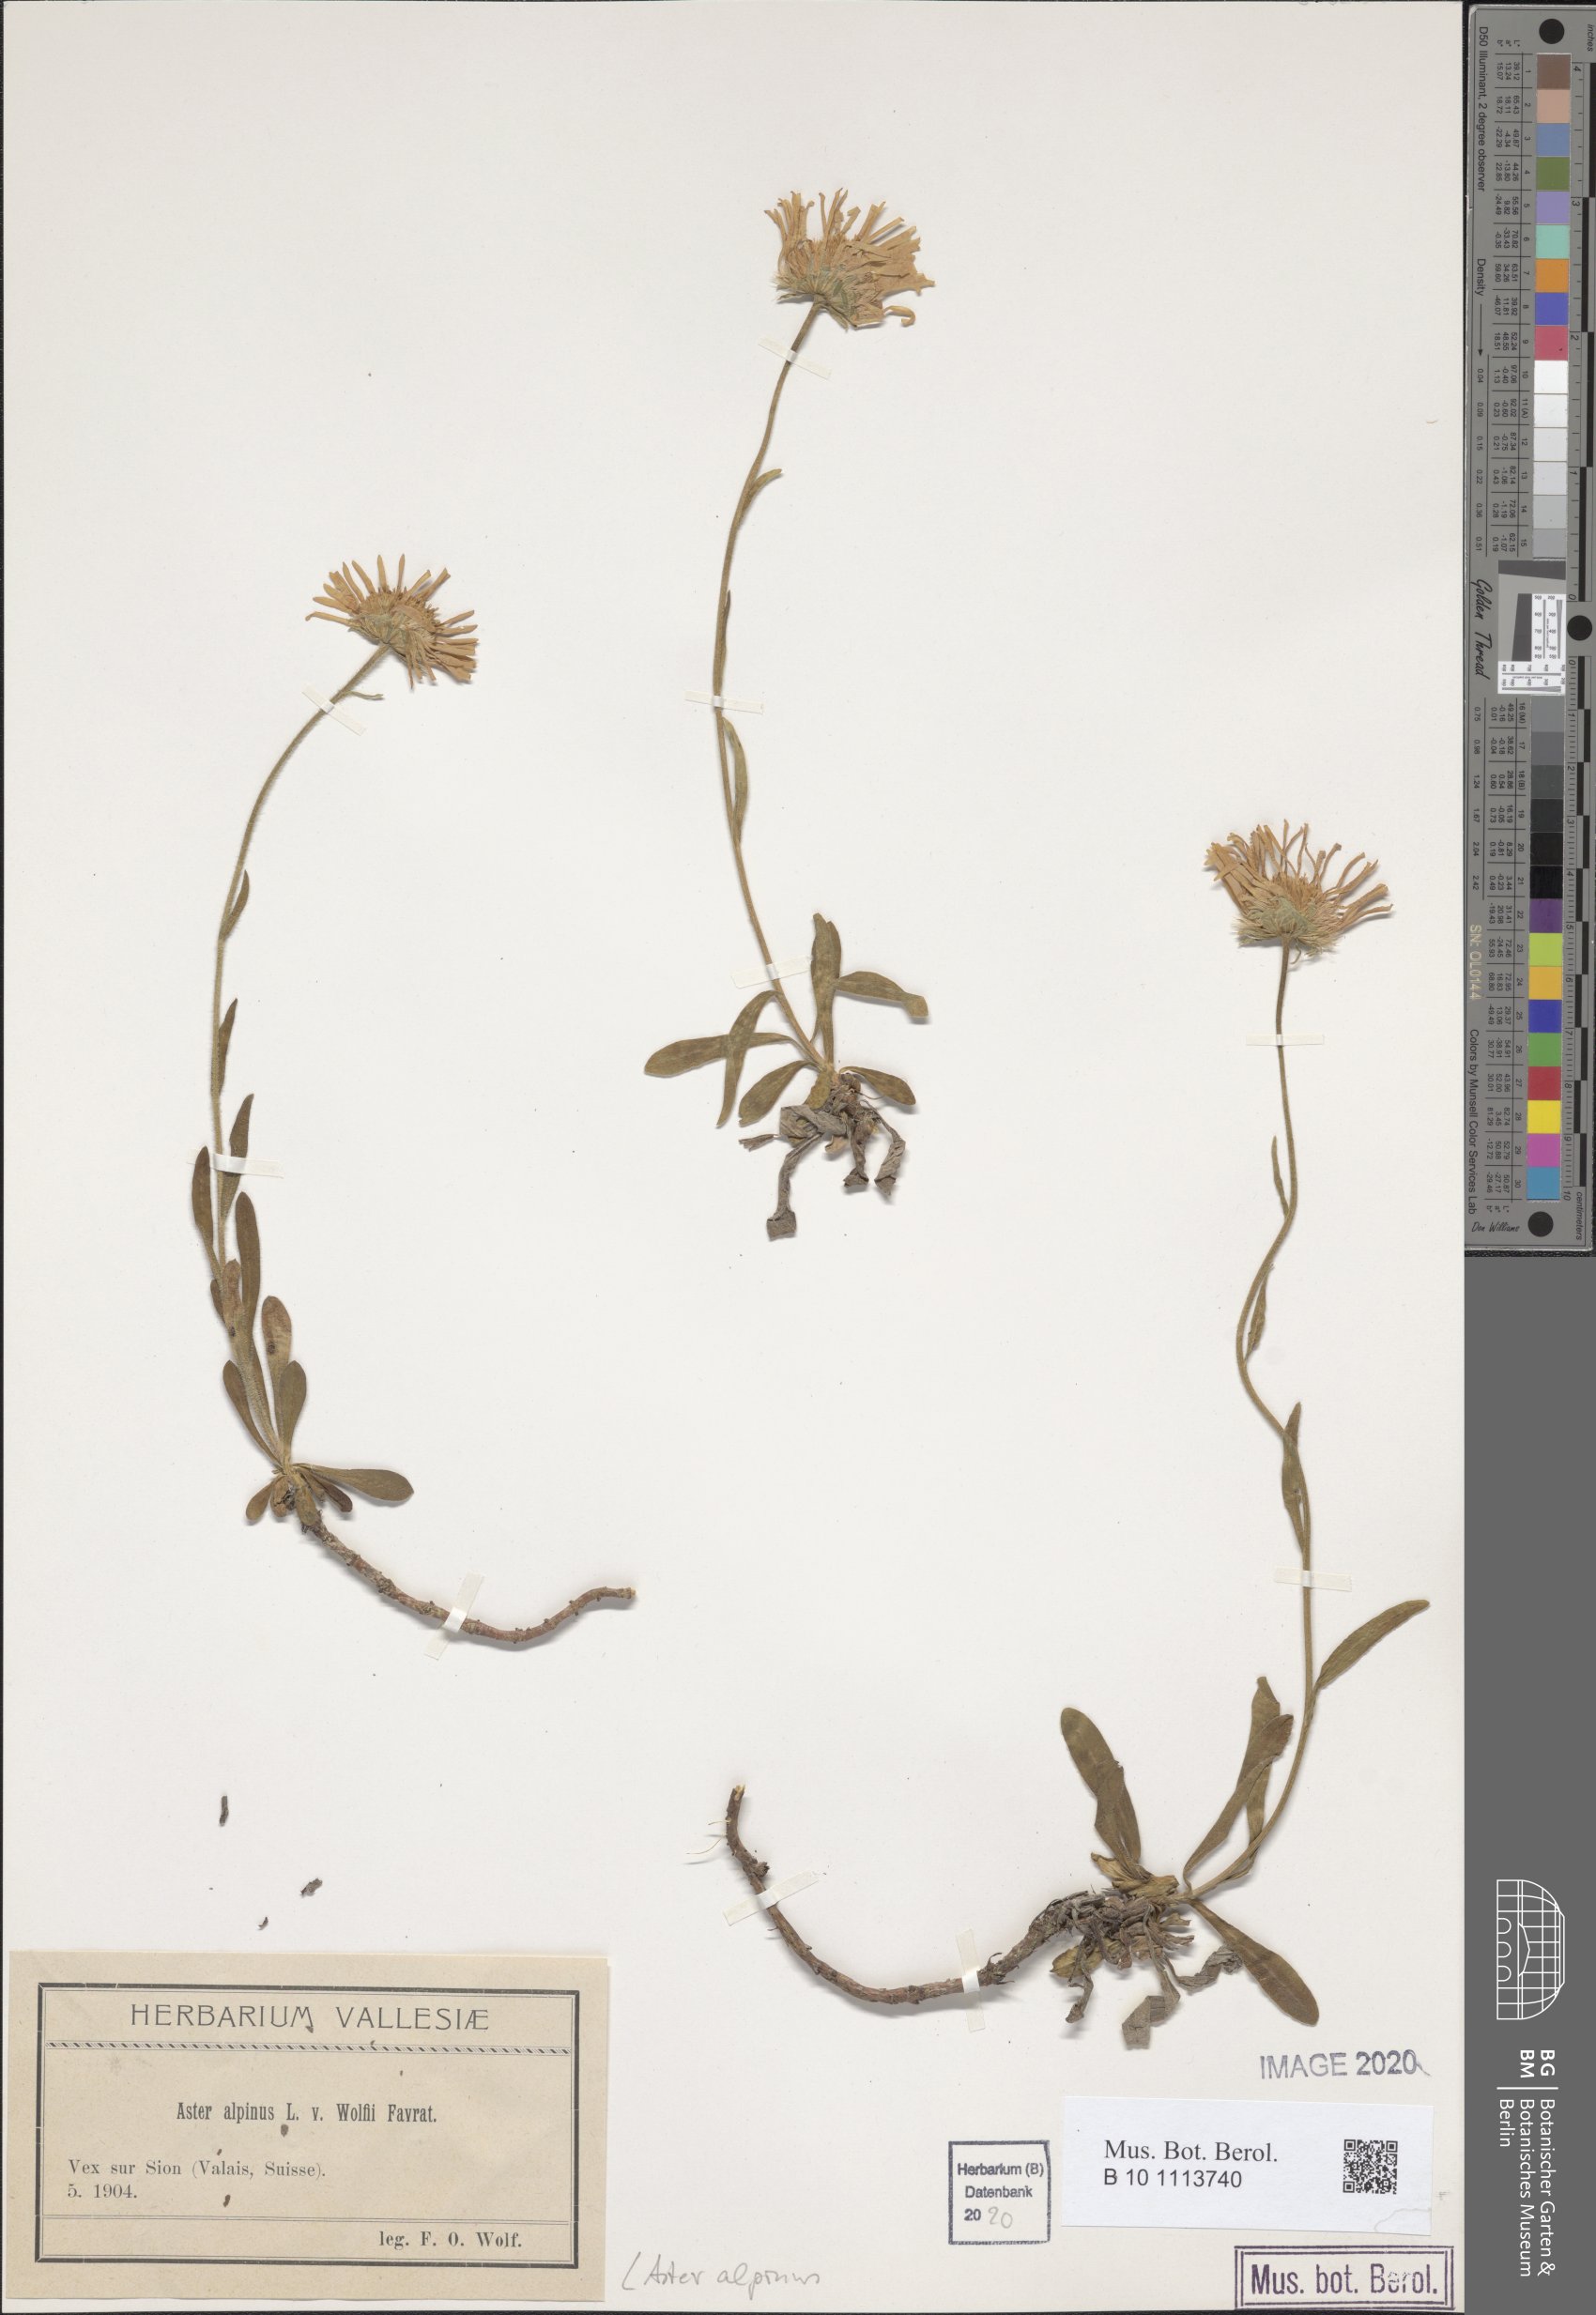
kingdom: Plantae
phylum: Tracheophyta
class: Magnoliopsida
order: Asterales
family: Asteraceae
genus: Aster
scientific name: Aster alpinus
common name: Alpine aster
